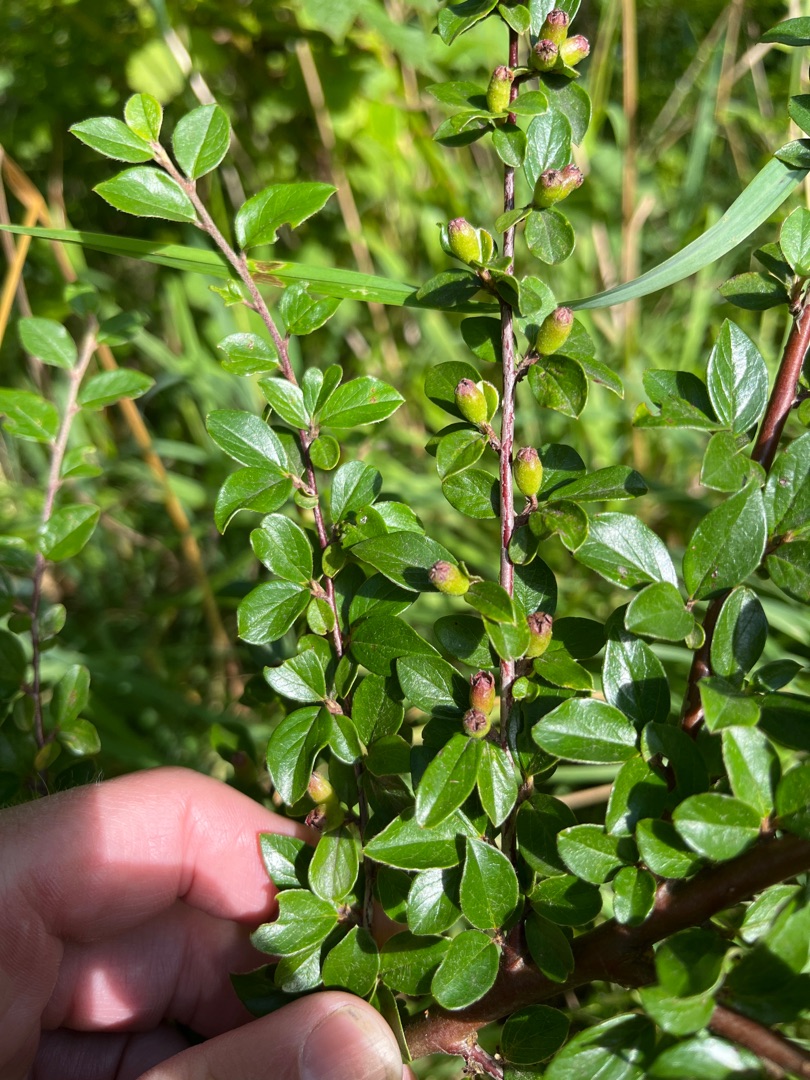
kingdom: Plantae
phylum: Tracheophyta
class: Magnoliopsida
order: Rosales
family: Rosaceae
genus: Cotoneaster
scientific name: Cotoneaster divaricatus
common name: Vifte-dværgmispel
